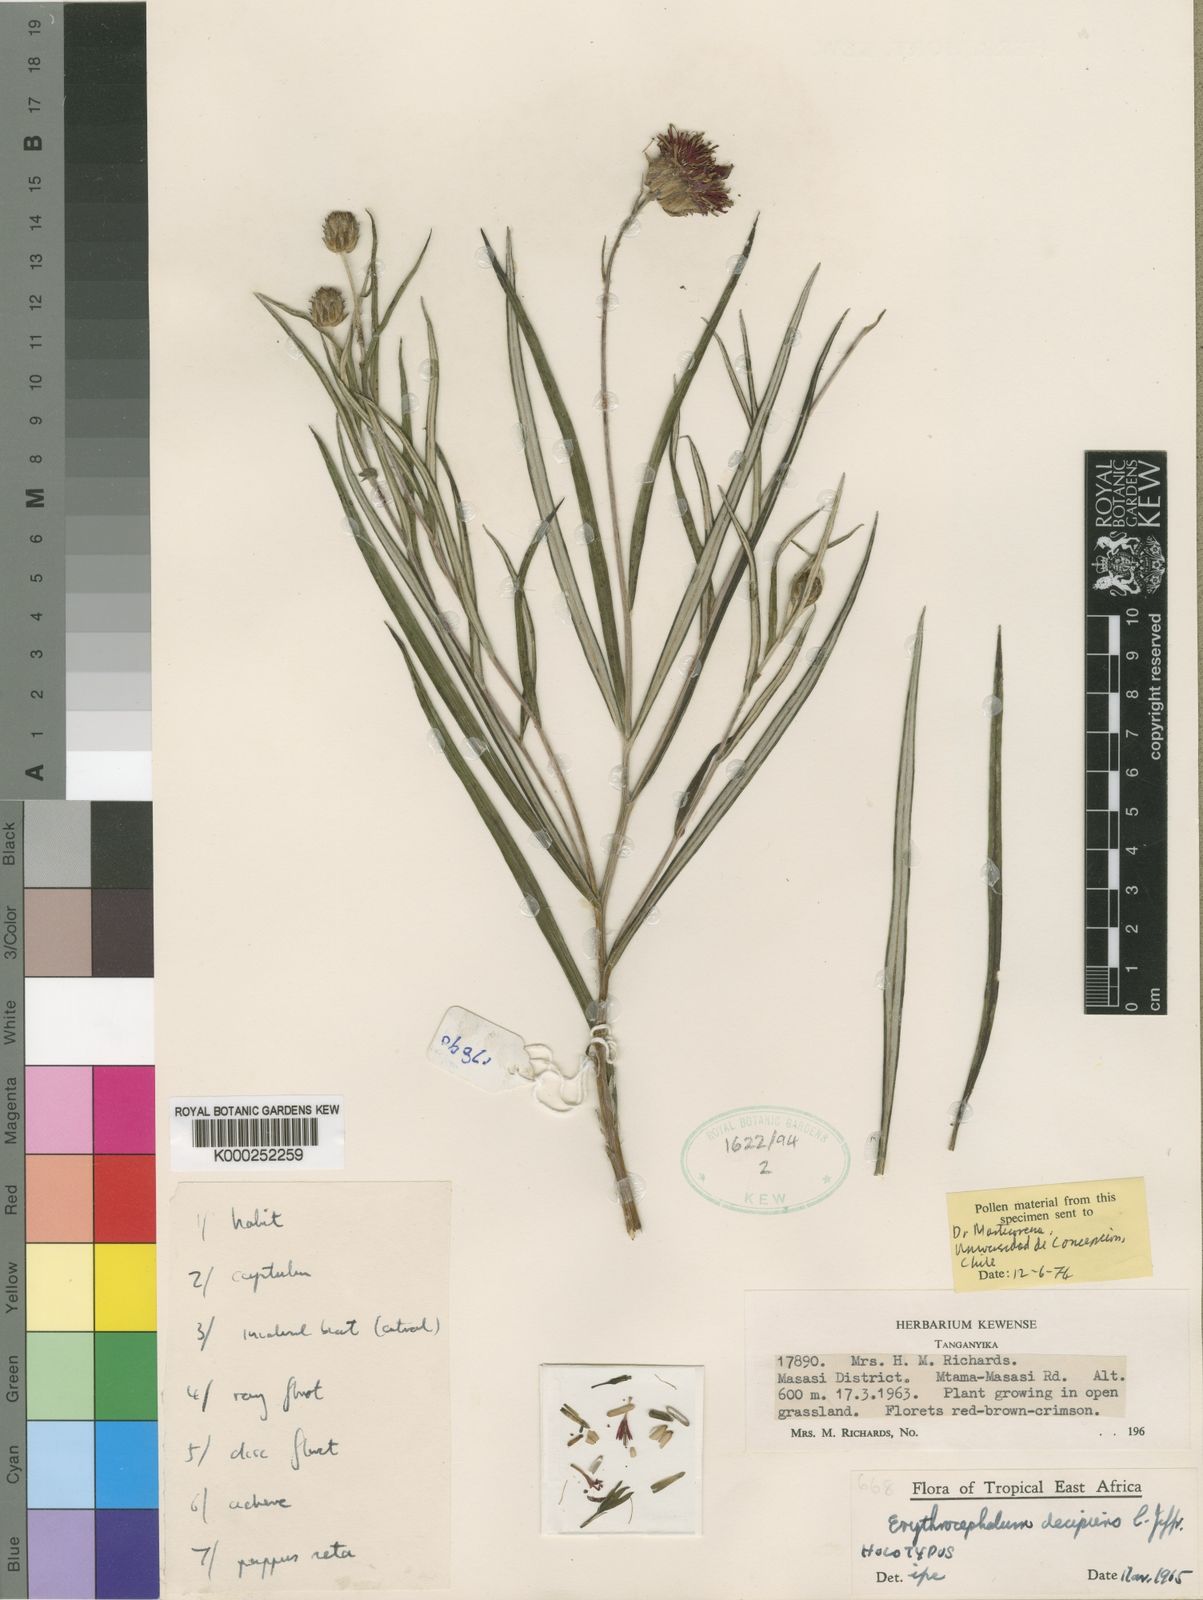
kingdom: Plantae
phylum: Tracheophyta
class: Magnoliopsida
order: Asterales
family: Asteraceae
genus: Erythrocephalum
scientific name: Erythrocephalum decipiens
